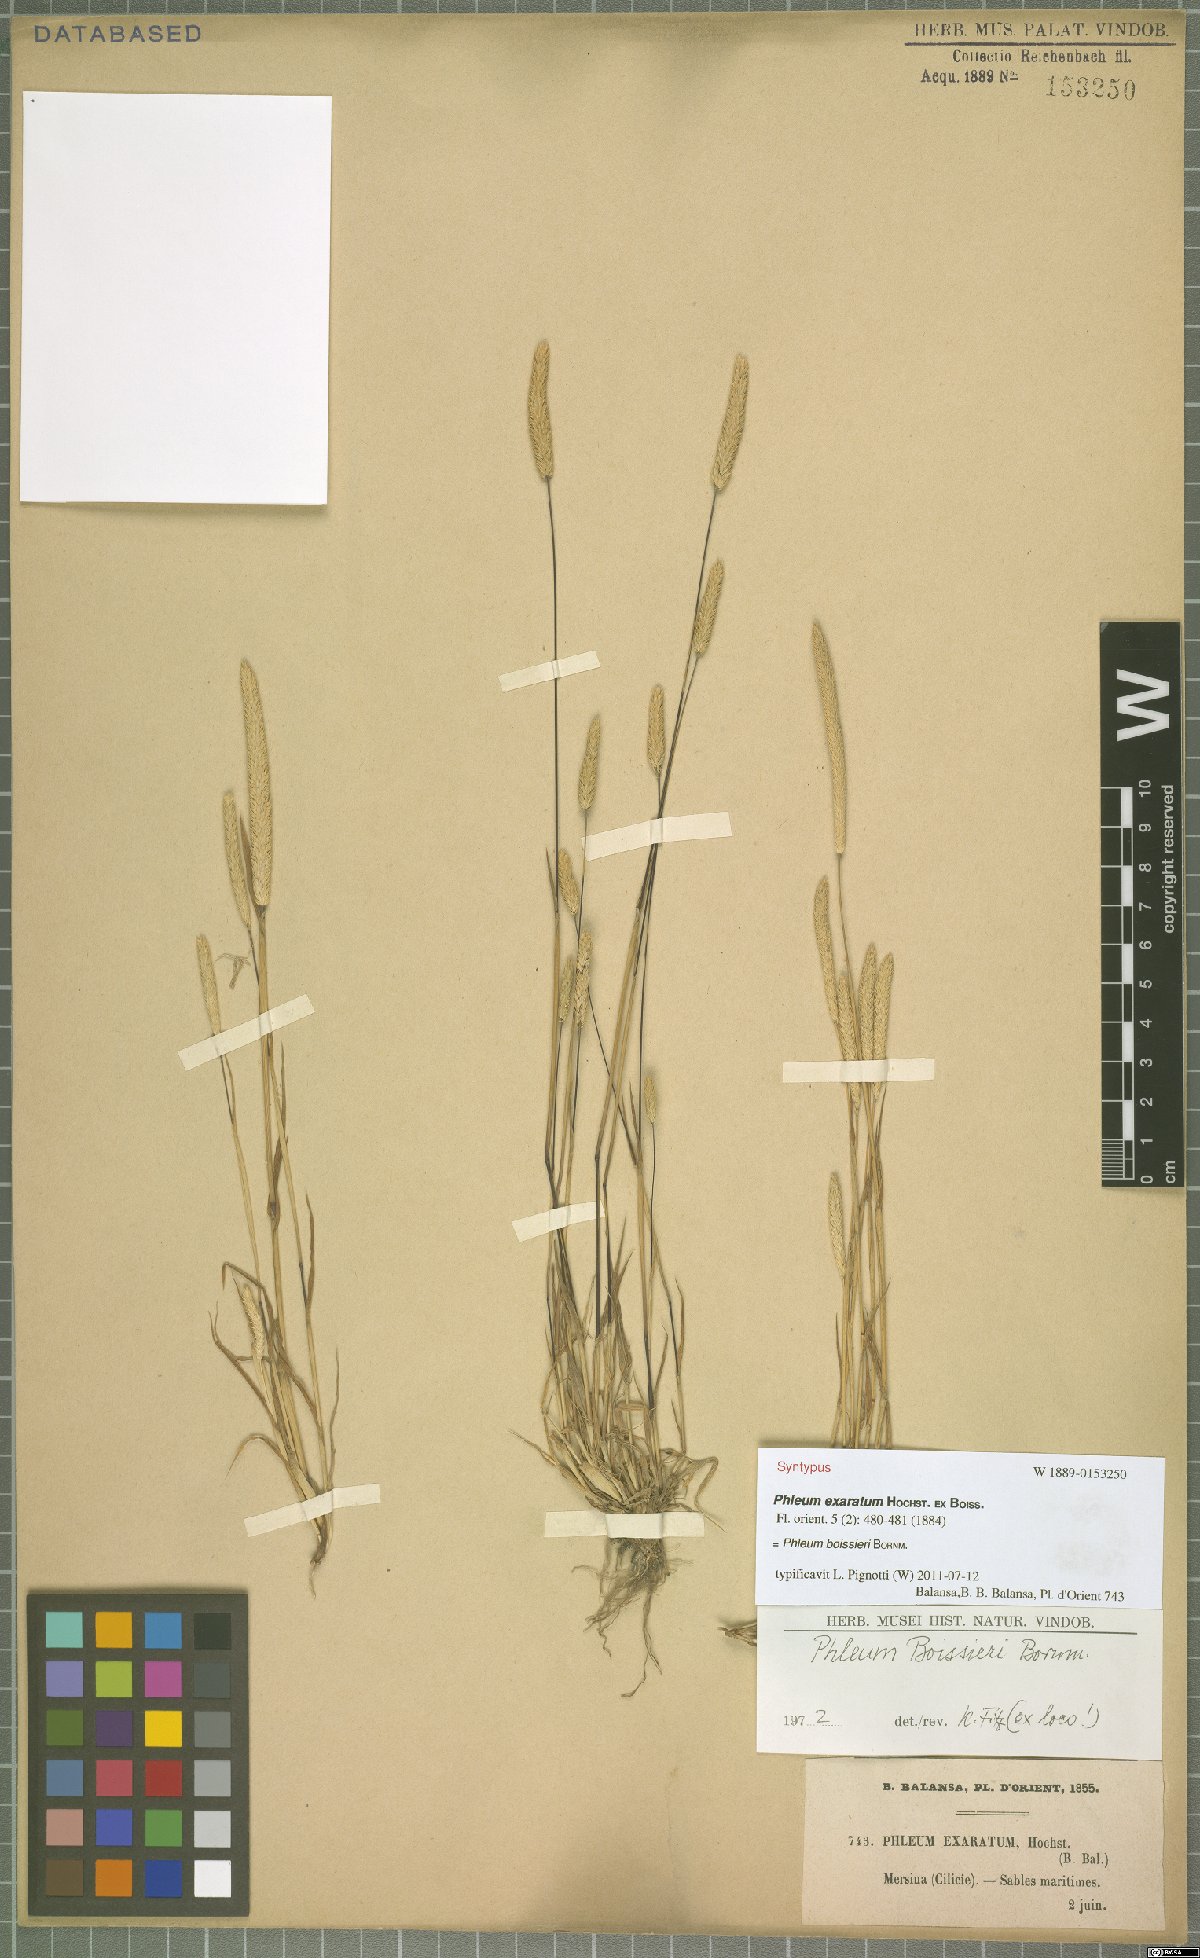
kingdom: Plantae
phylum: Tracheophyta
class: Liliopsida
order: Poales
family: Poaceae
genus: Phleum
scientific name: Phleum boissieri
